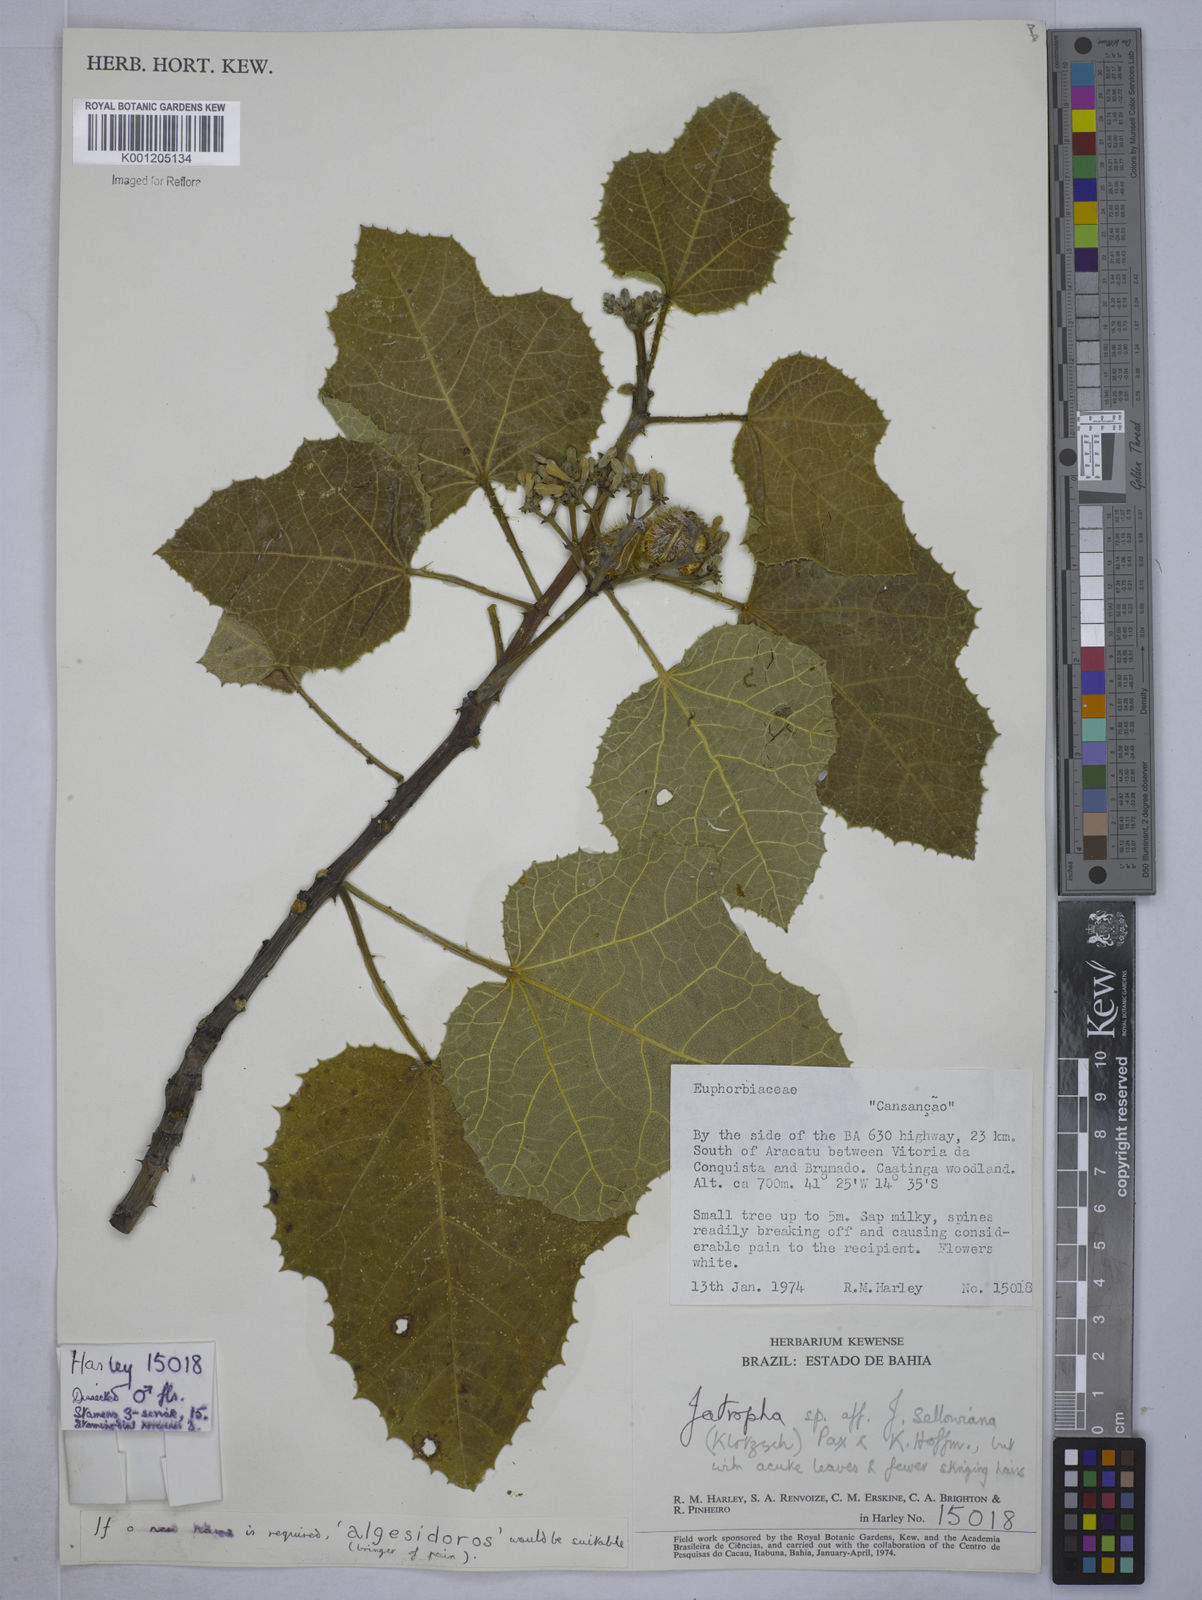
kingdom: Plantae
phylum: Tracheophyta
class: Magnoliopsida
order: Malpighiales
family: Euphorbiaceae
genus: Cnidoscolus
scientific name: Cnidoscolus sellowianus
